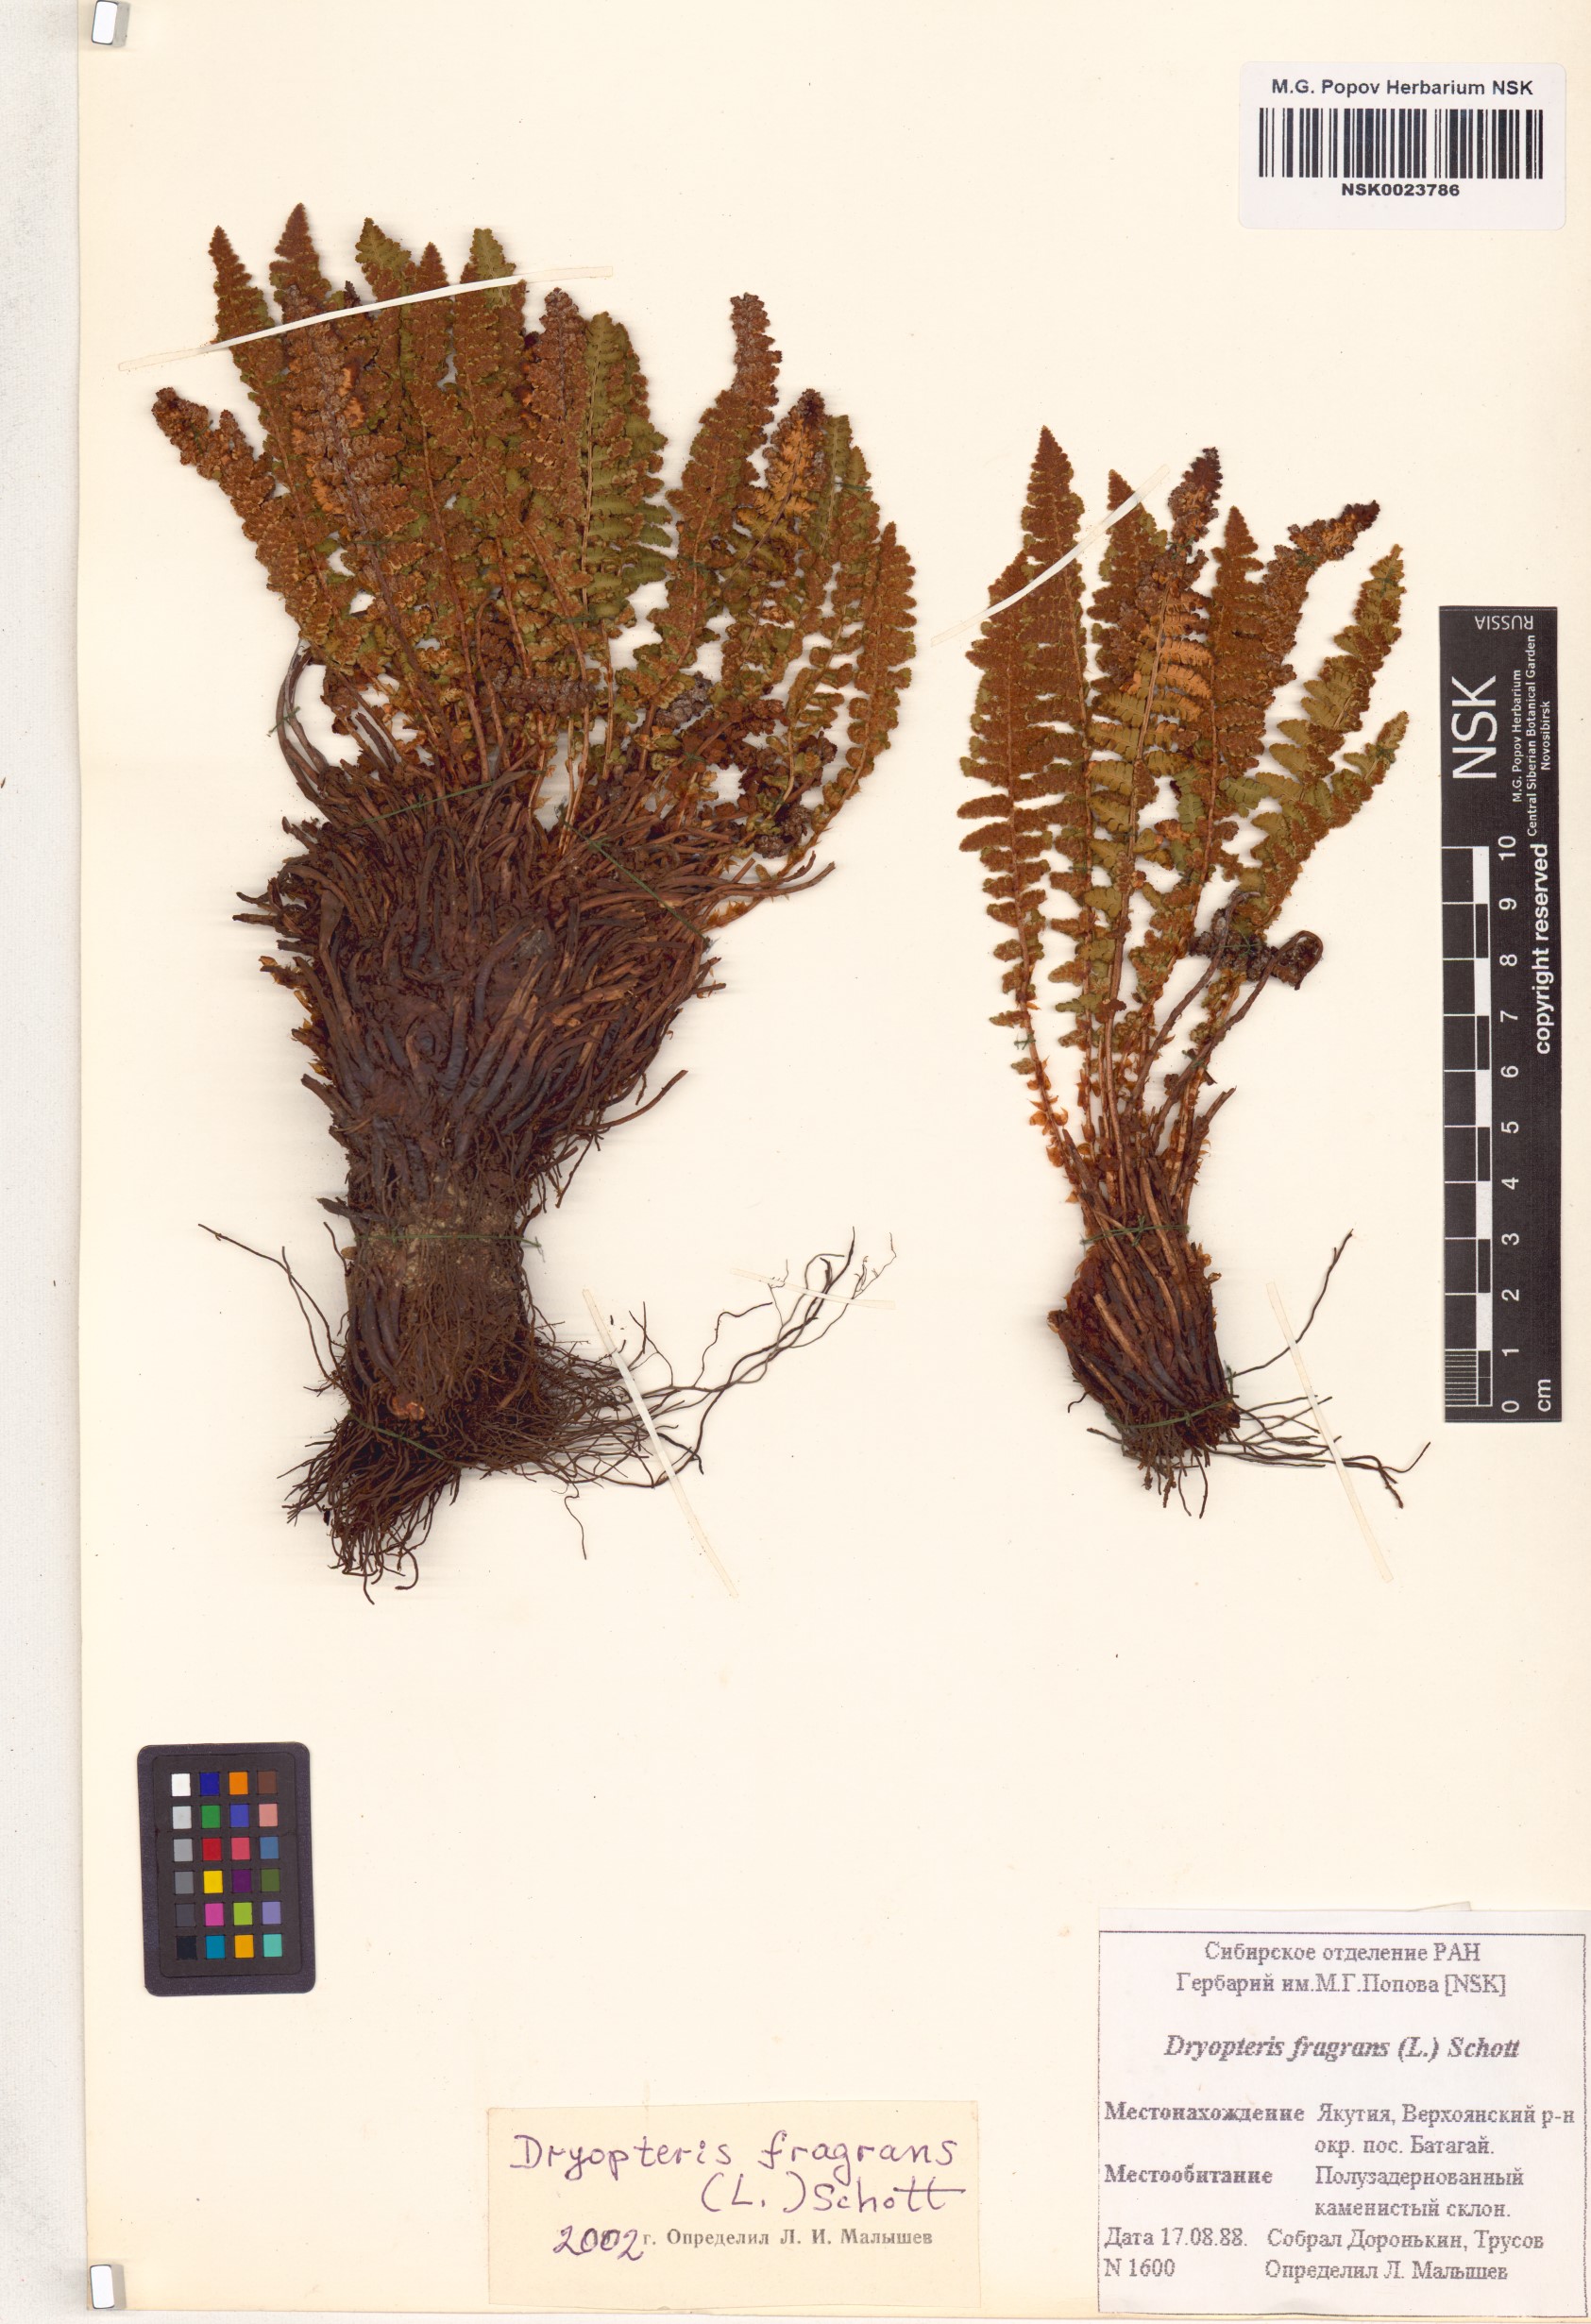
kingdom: Plantae
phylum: Tracheophyta
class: Polypodiopsida
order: Polypodiales
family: Dryopteridaceae
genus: Dryopteris
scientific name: Dryopteris fragrans
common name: Fragrant wood fern
